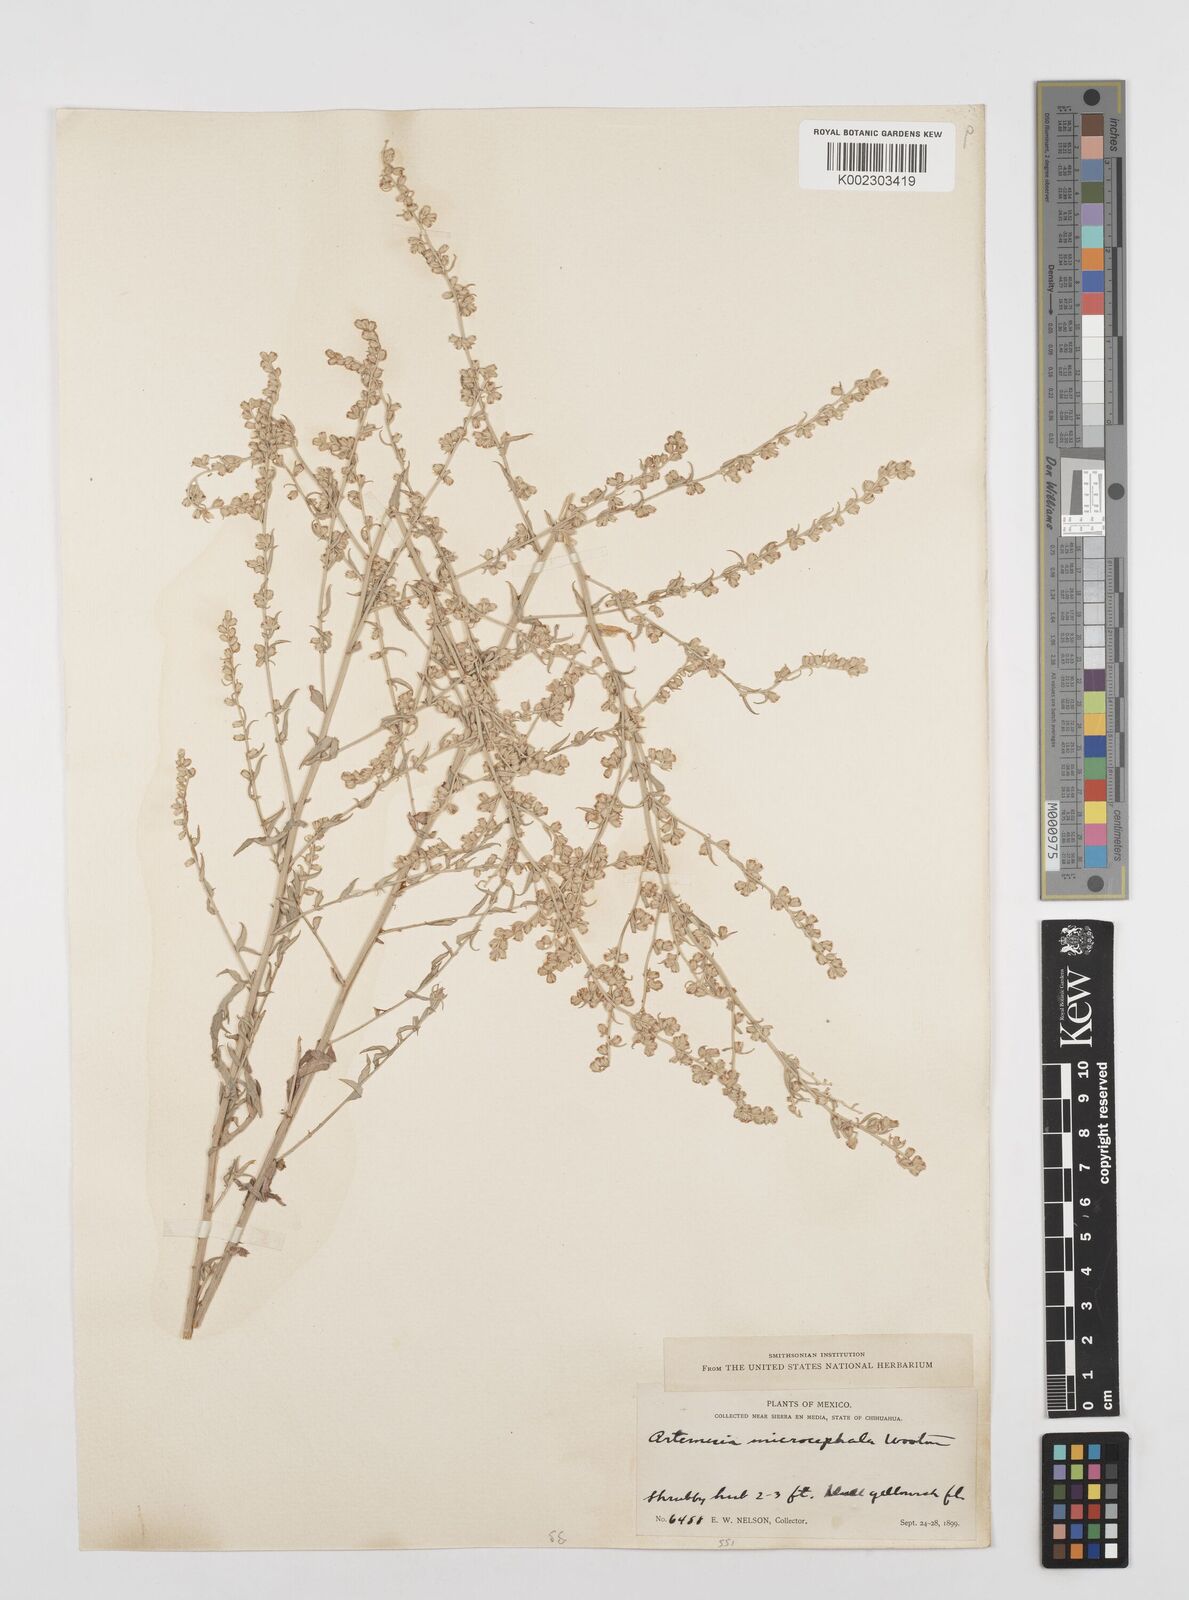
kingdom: Plantae
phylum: Tracheophyta
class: Magnoliopsida
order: Asterales
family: Asteraceae
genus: Artemisia
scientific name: Artemisia ludoviciana
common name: Western mugwort
